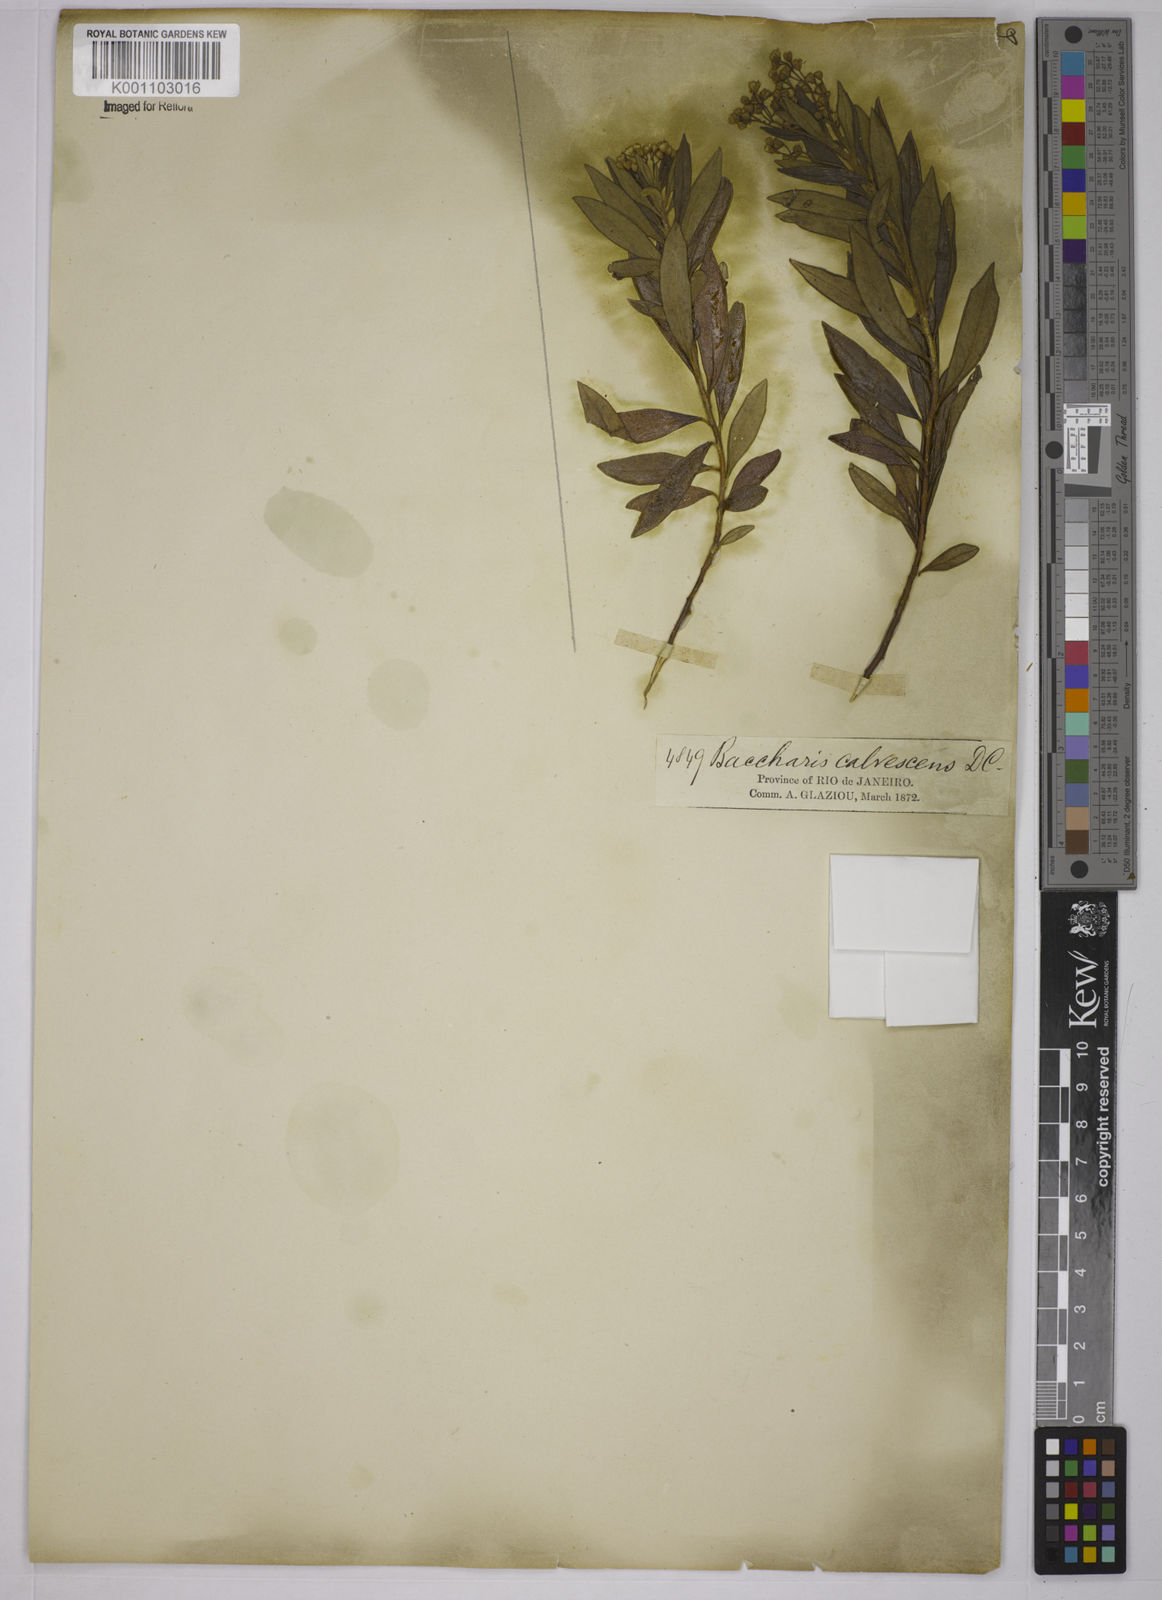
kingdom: Plantae
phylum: Tracheophyta
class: Magnoliopsida
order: Asterales
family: Asteraceae
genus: Baccharis
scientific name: Baccharis calvescens
